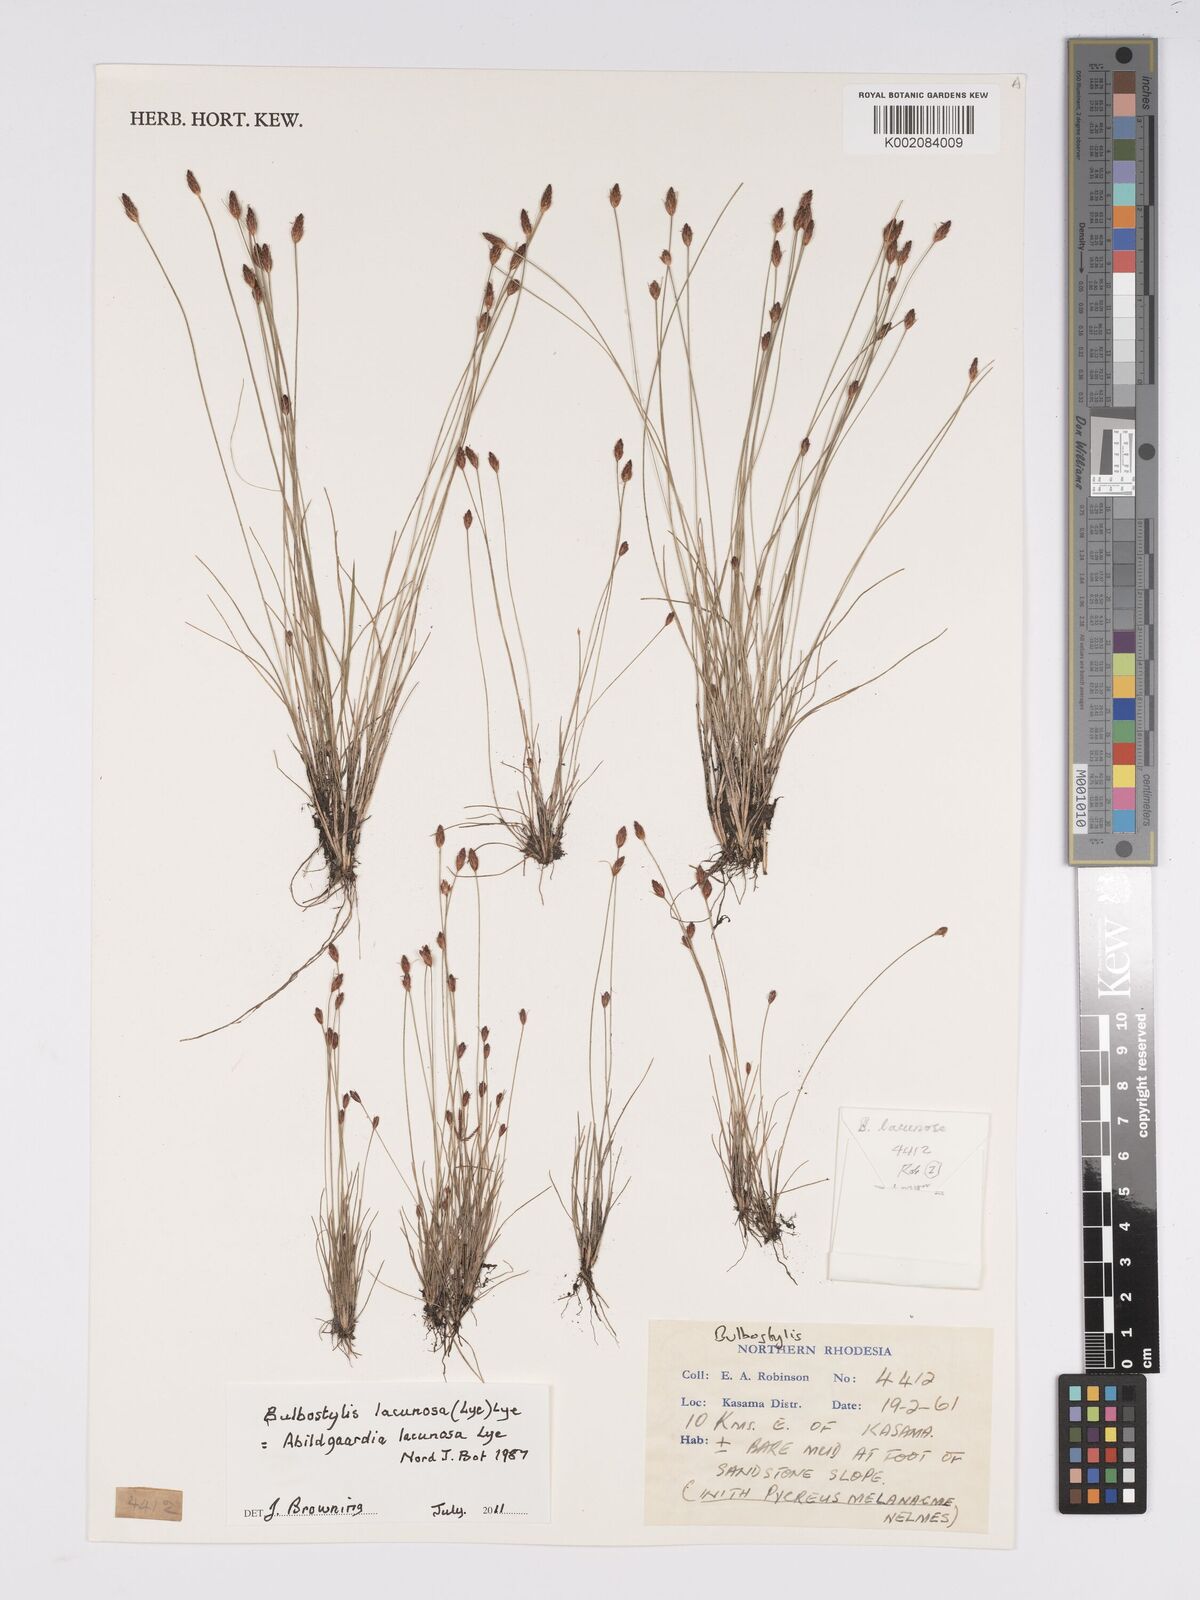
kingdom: Plantae
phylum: Tracheophyta
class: Liliopsida
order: Poales
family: Cyperaceae
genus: Bulbostylis
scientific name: Bulbostylis lacunosa
